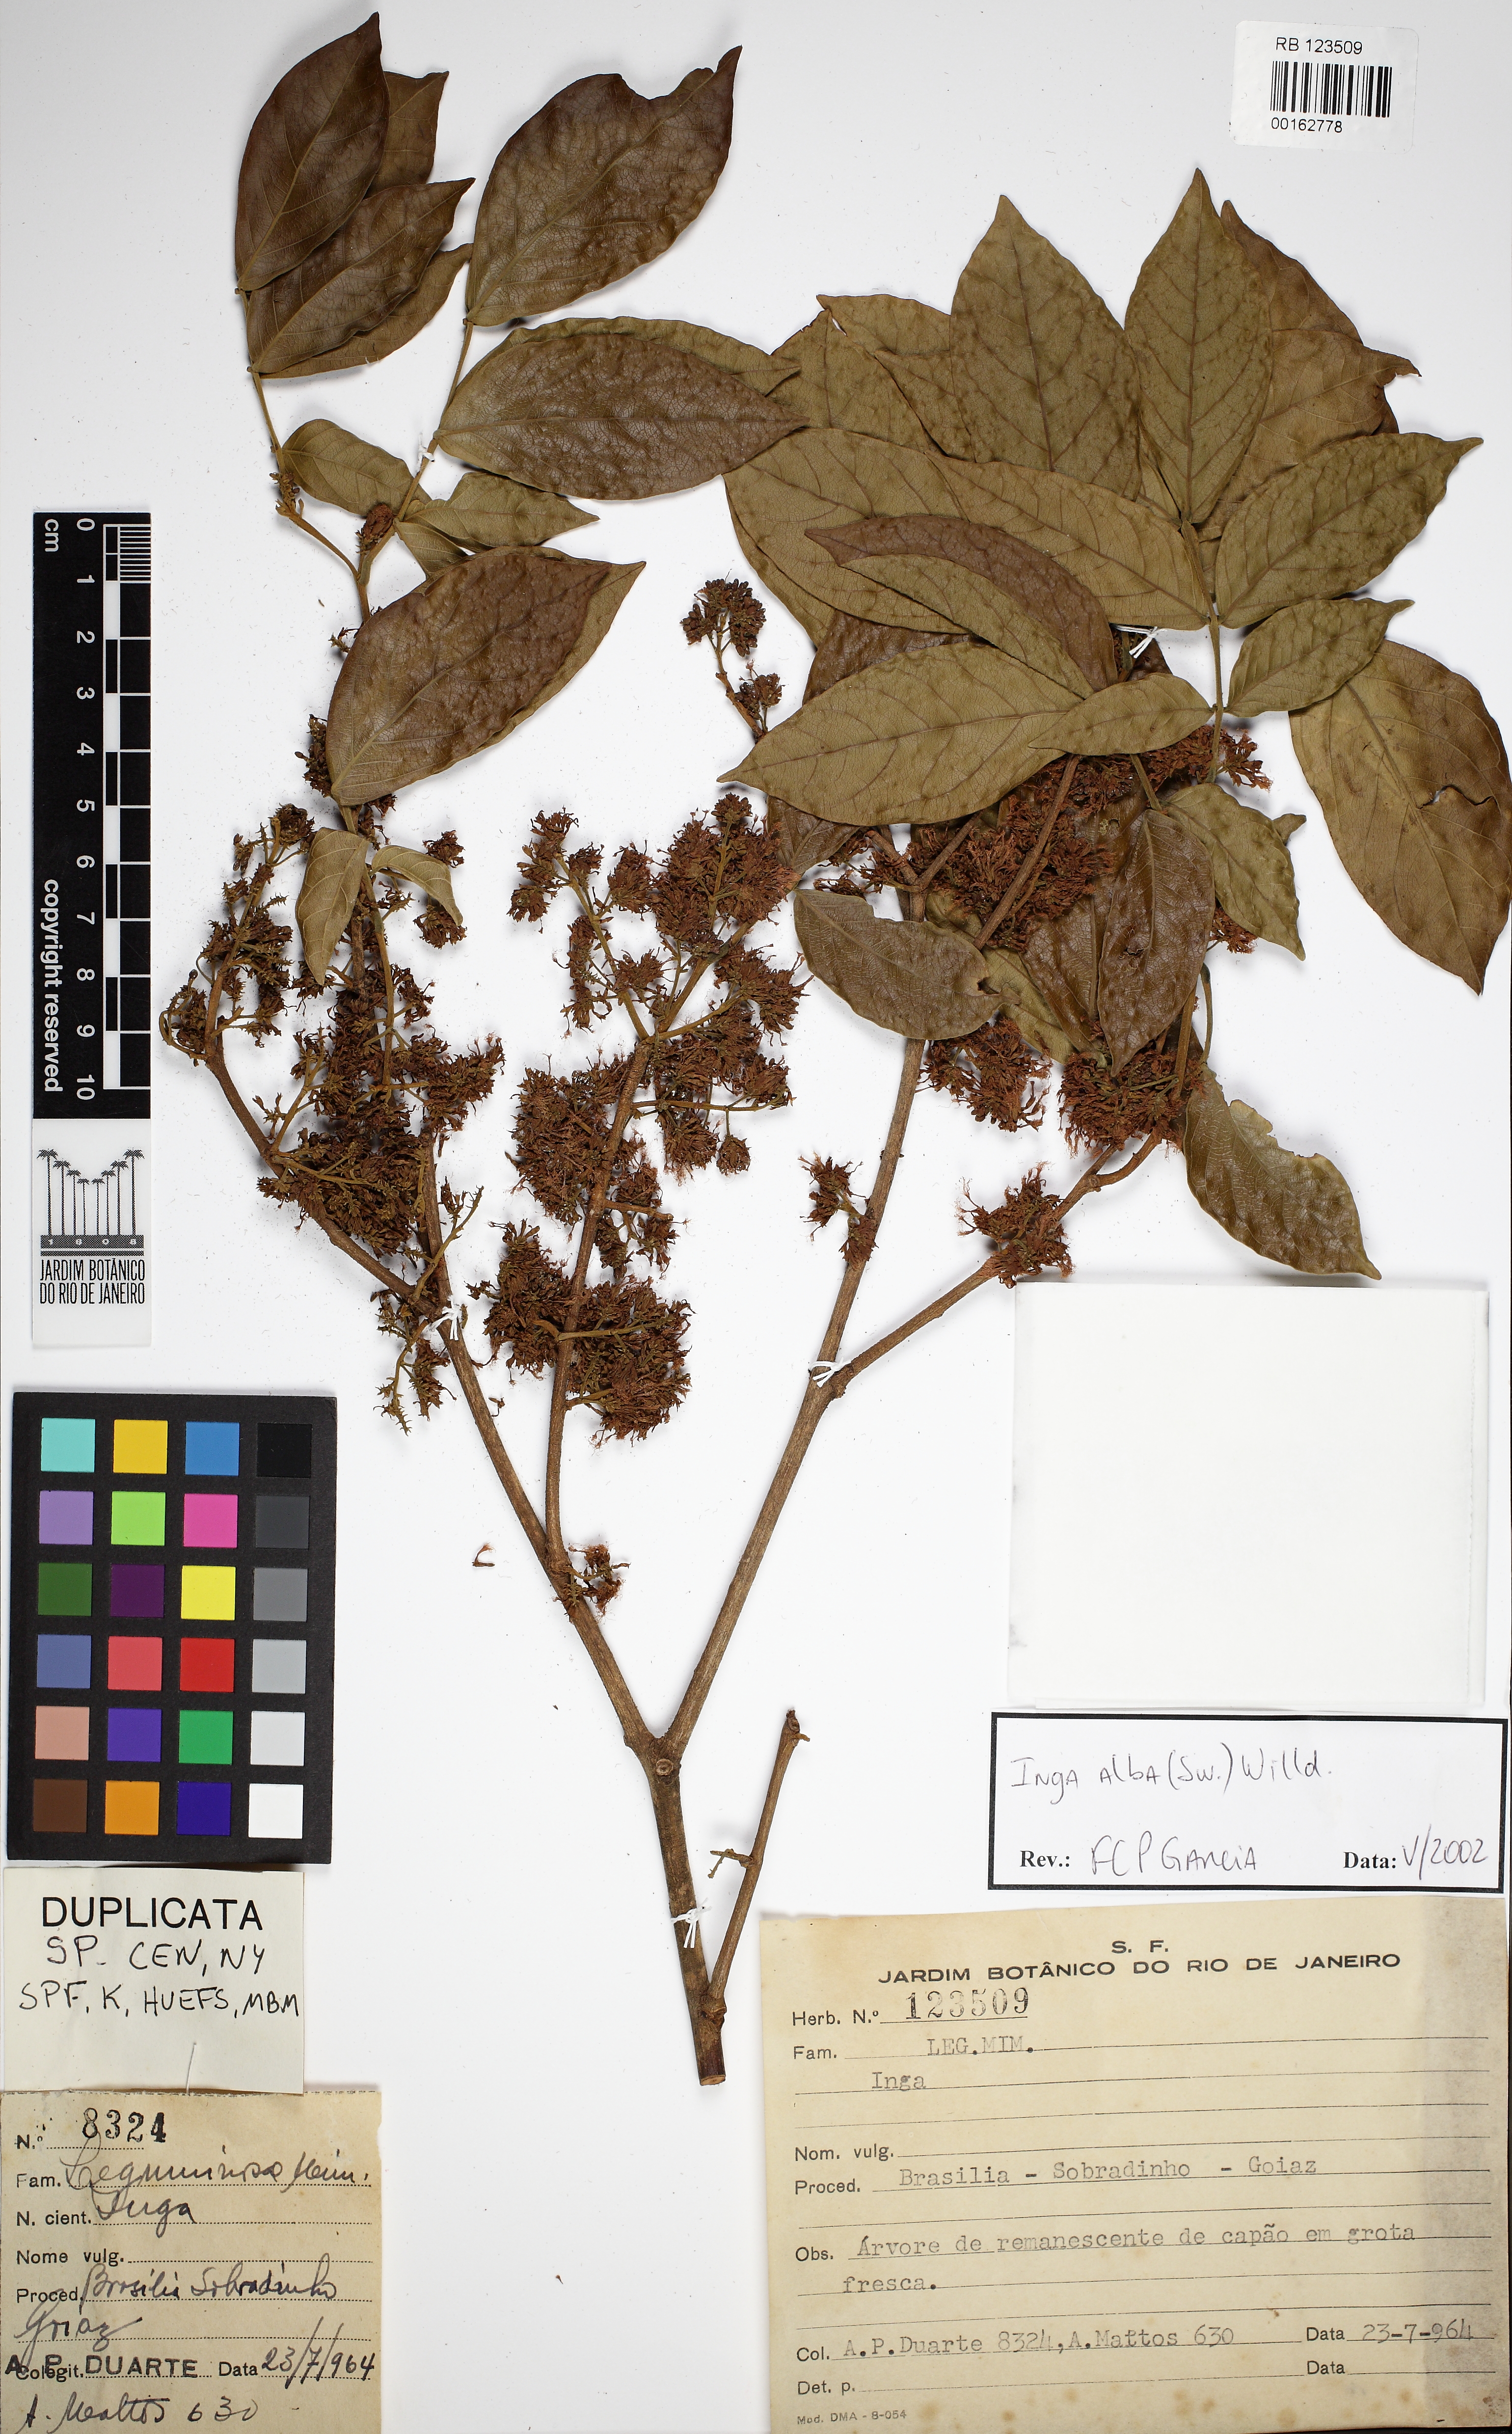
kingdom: Plantae
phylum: Tracheophyta
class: Magnoliopsida
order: Fabales
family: Fabaceae
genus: Inga
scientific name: Inga alba
